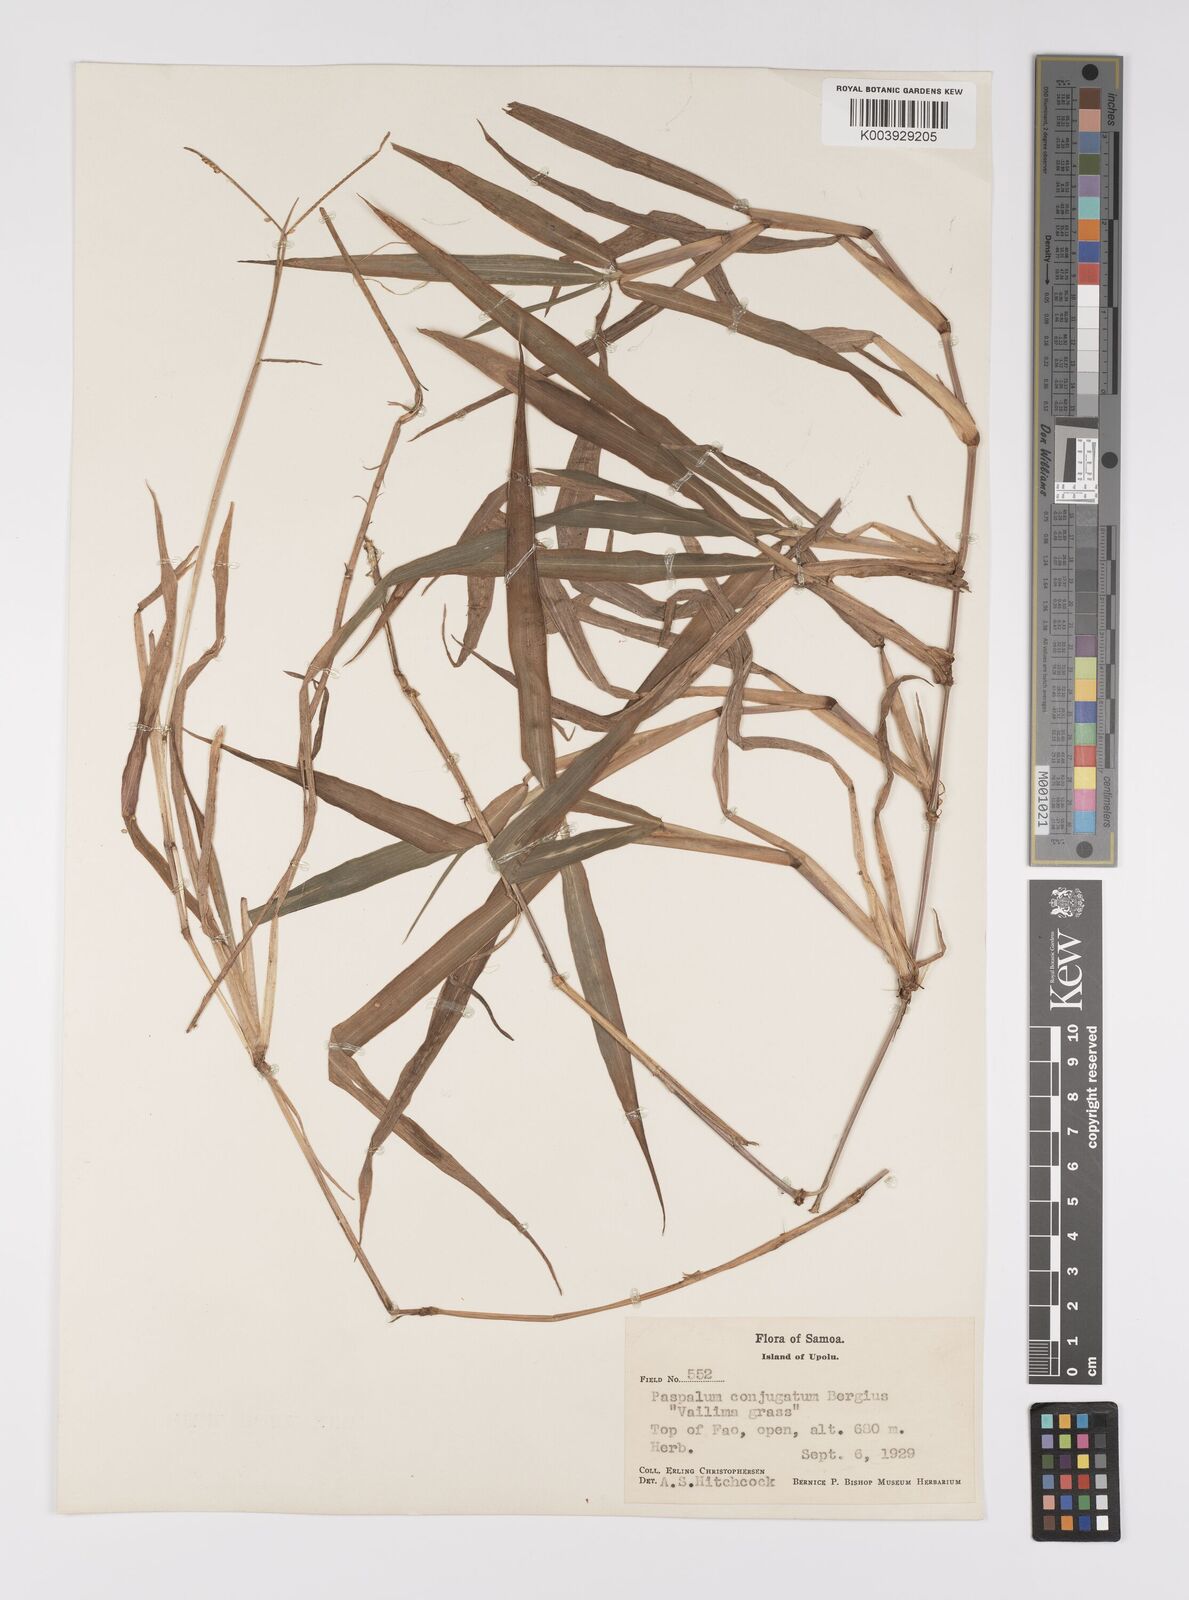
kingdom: Plantae
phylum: Tracheophyta
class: Liliopsida
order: Poales
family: Poaceae
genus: Paspalum
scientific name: Paspalum conjugatum
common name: Hilograss
